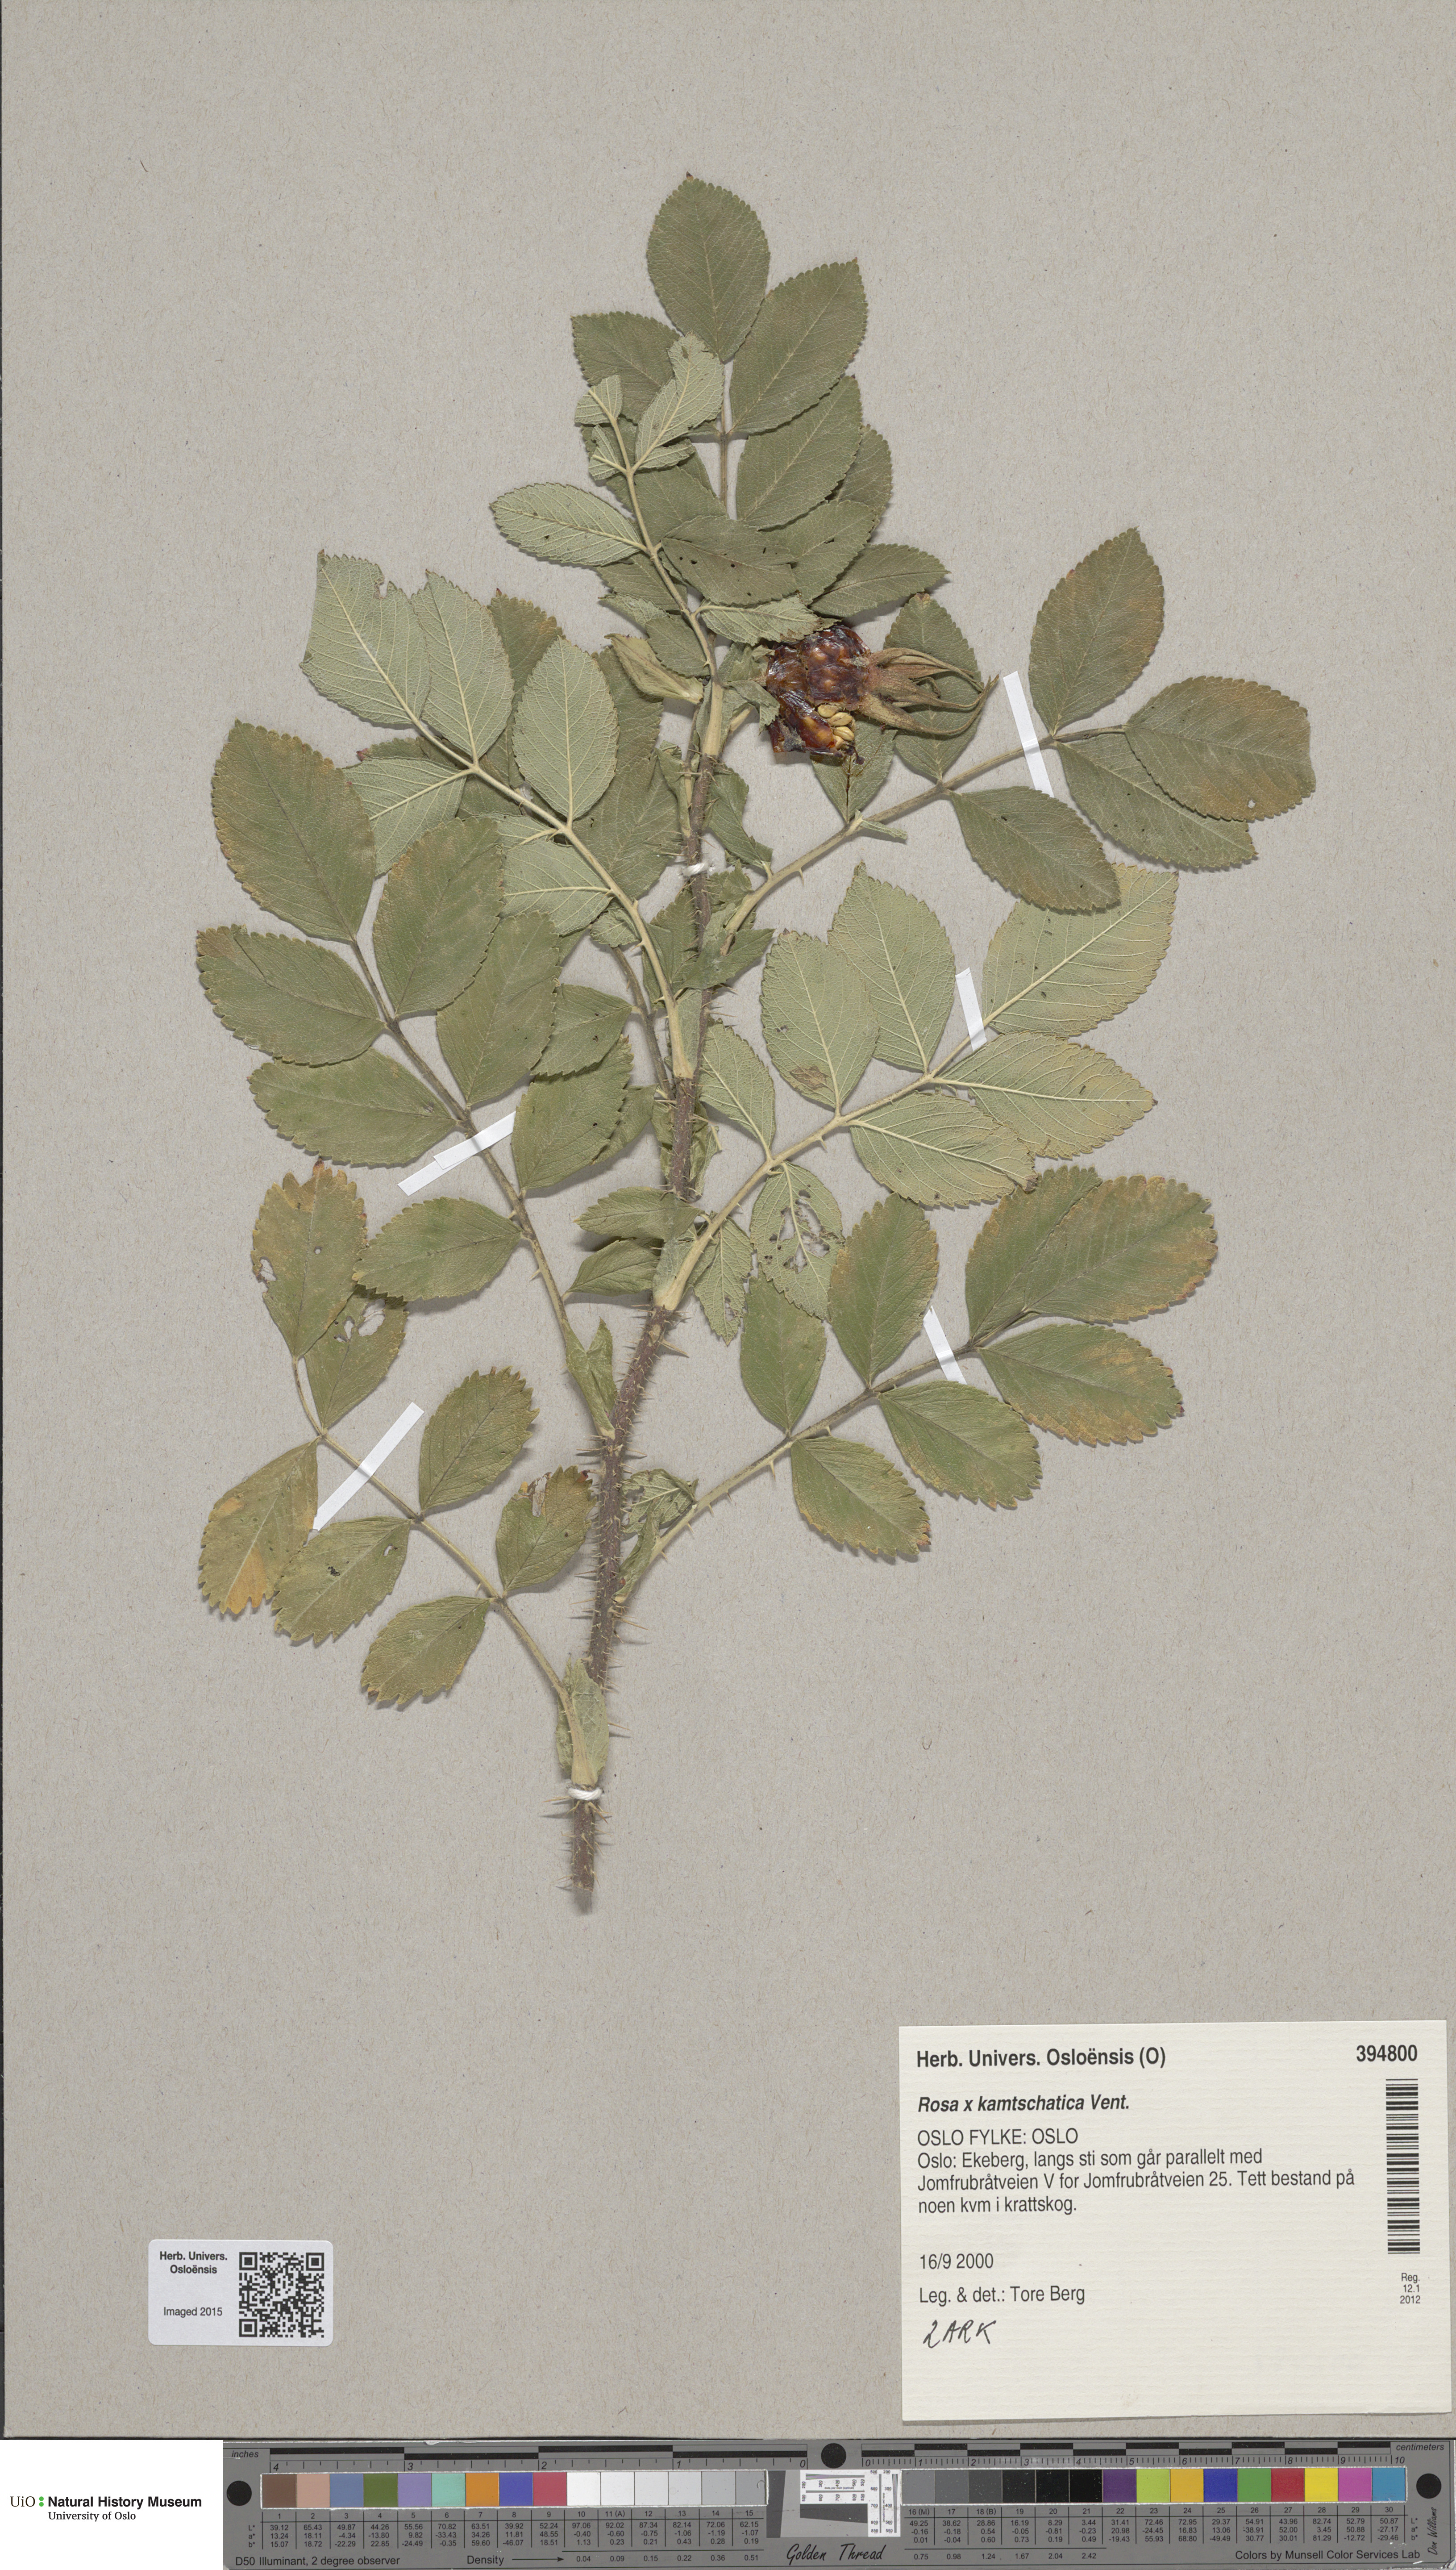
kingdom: Plantae
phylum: Tracheophyta
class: Magnoliopsida
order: Rosales
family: Rosaceae
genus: Rosa
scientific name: Rosa spaethiana
